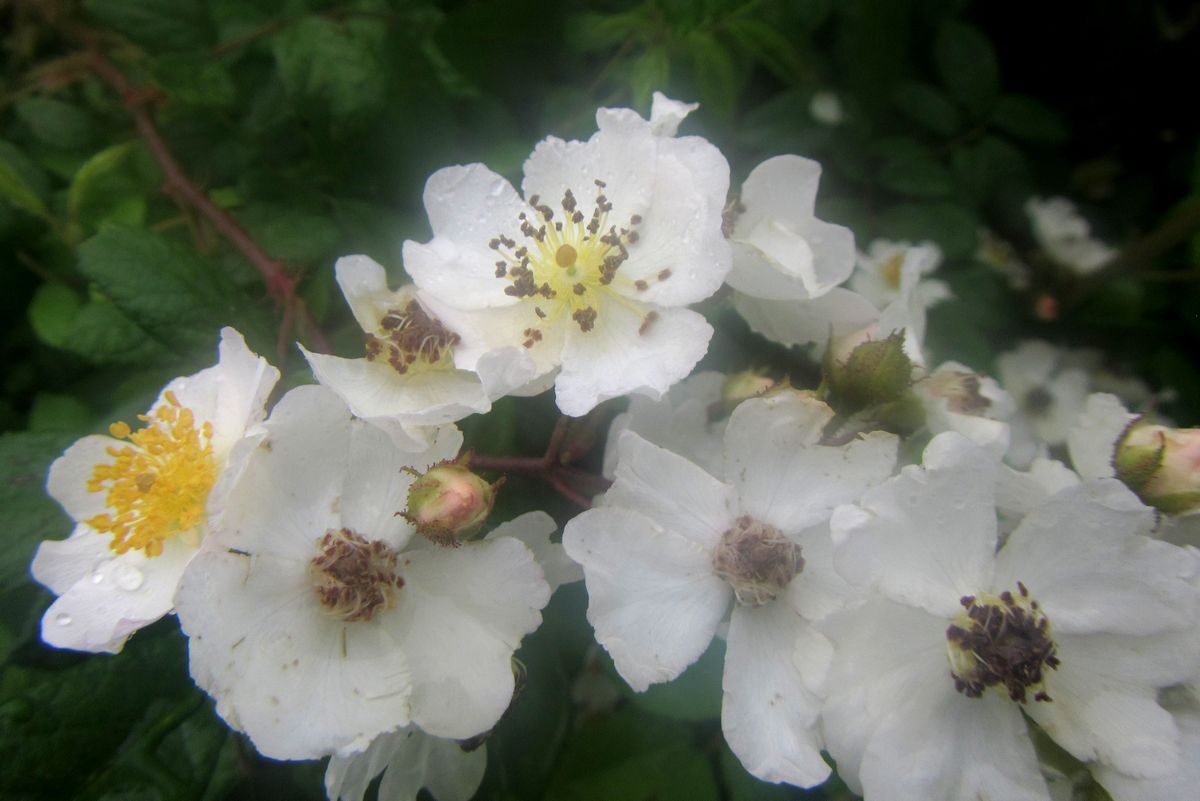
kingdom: Plantae
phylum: Tracheophyta
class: Magnoliopsida
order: Rosales
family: Rosaceae
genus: Rosa
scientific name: Rosa spinosissima
